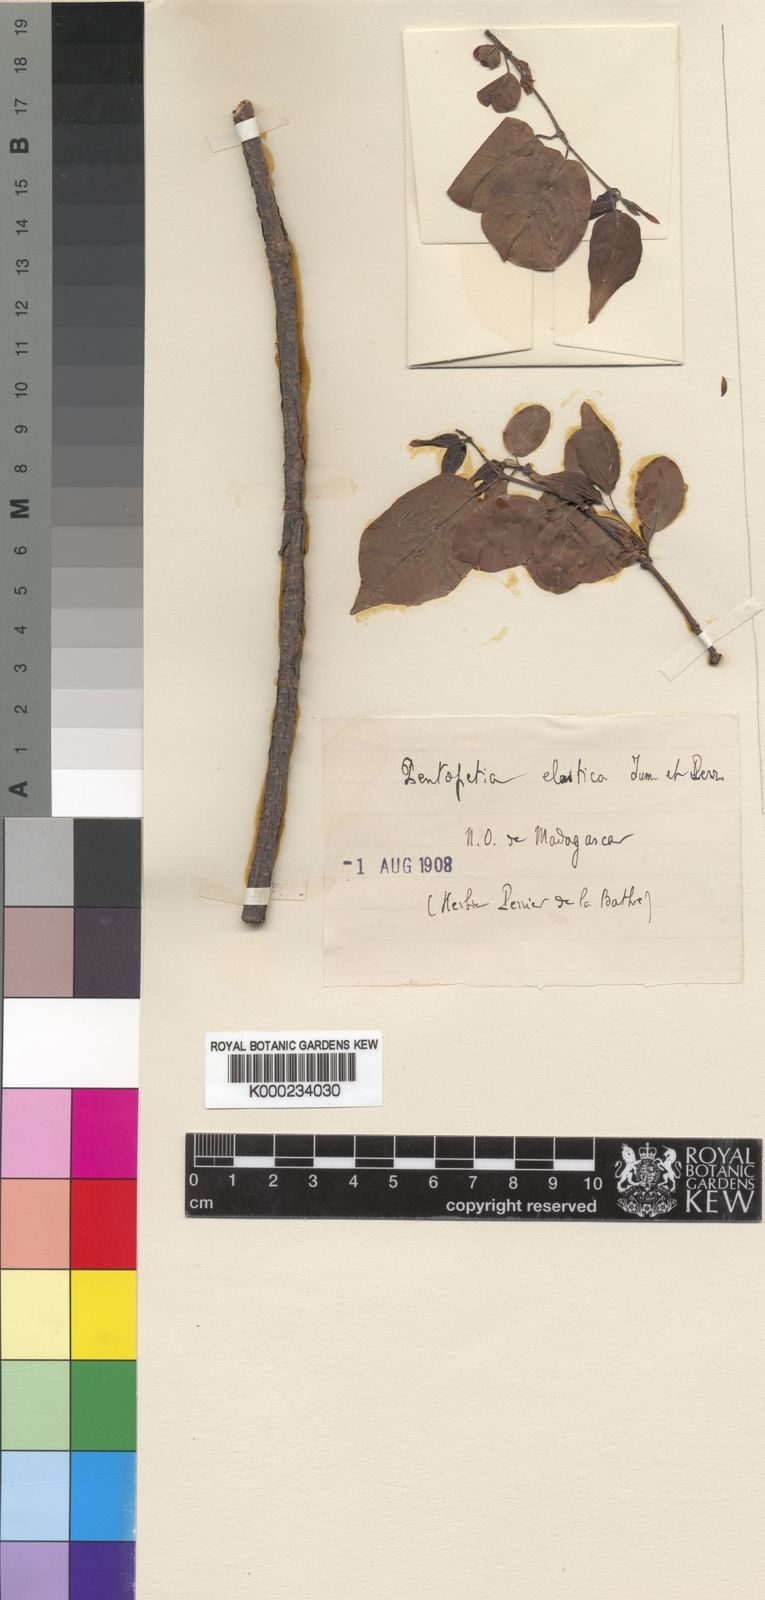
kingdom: Plantae
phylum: Tracheophyta
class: Magnoliopsida
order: Gentianales
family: Apocynaceae
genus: Pentopetia
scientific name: Pentopetia elastica
